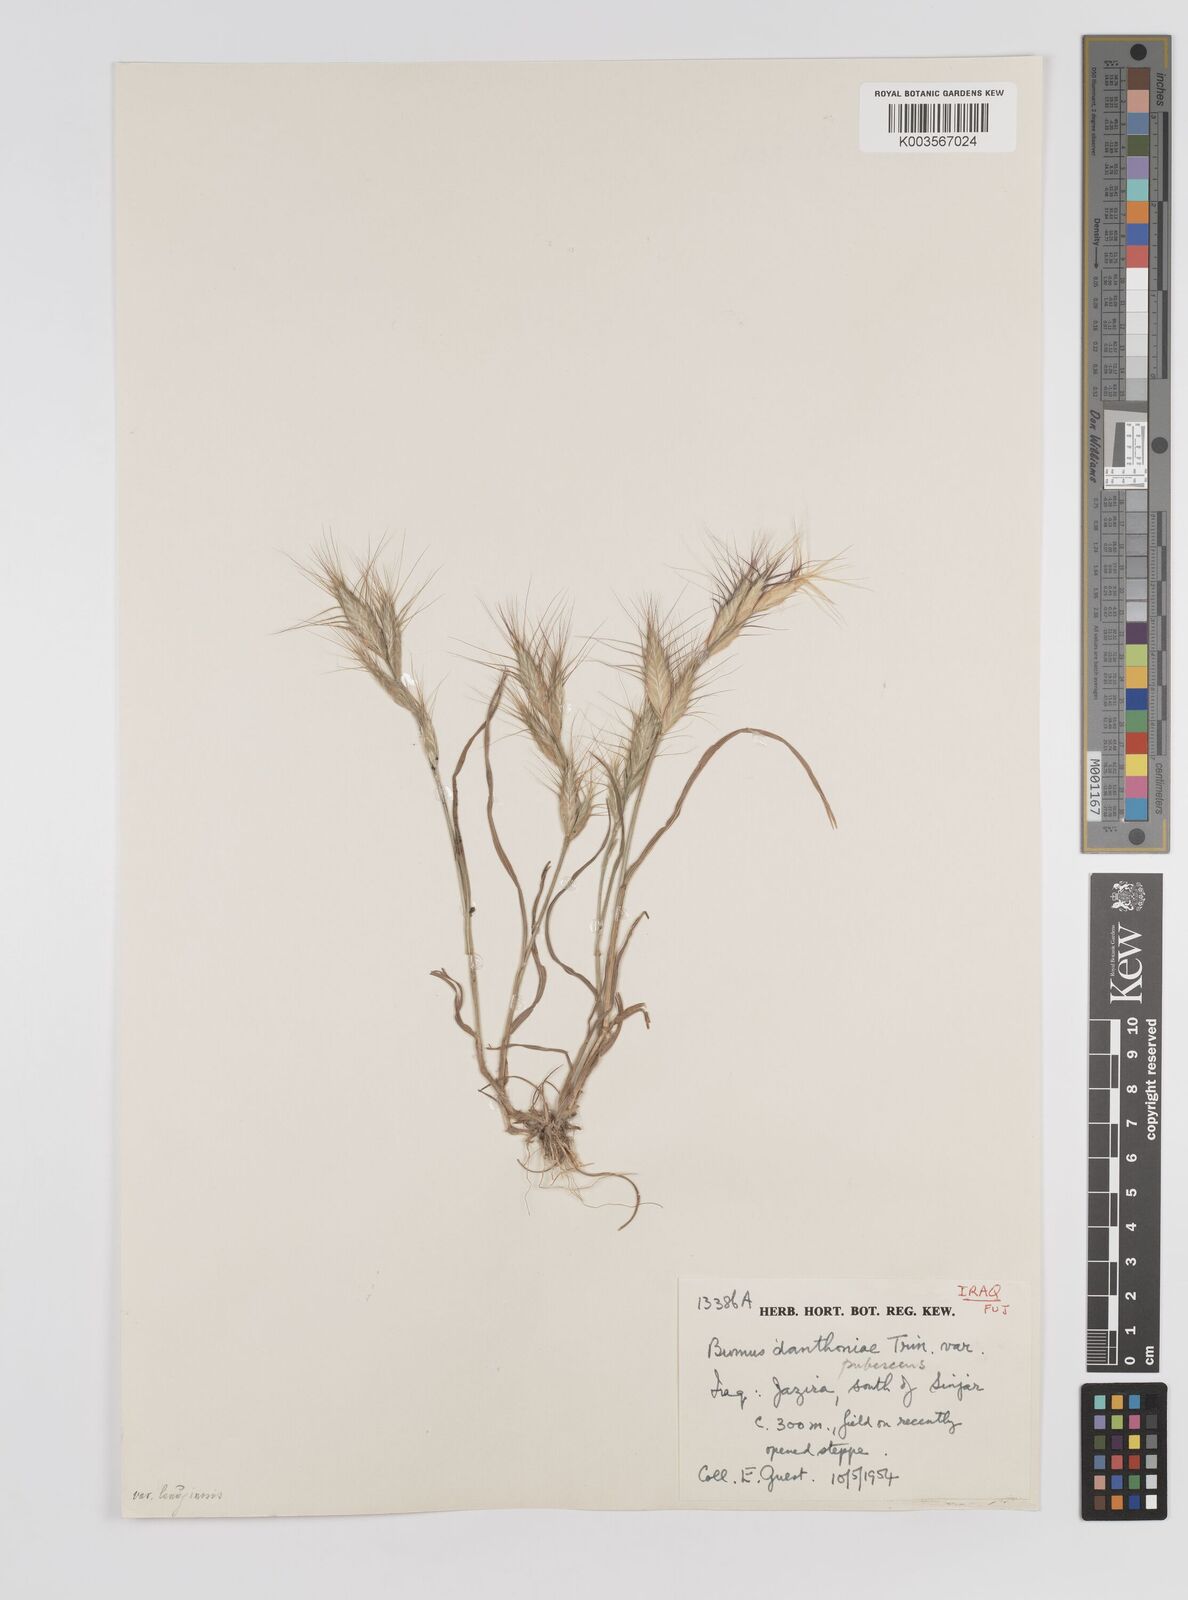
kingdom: Plantae
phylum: Tracheophyta
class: Liliopsida
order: Poales
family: Poaceae
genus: Bromus
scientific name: Bromus danthoniae
